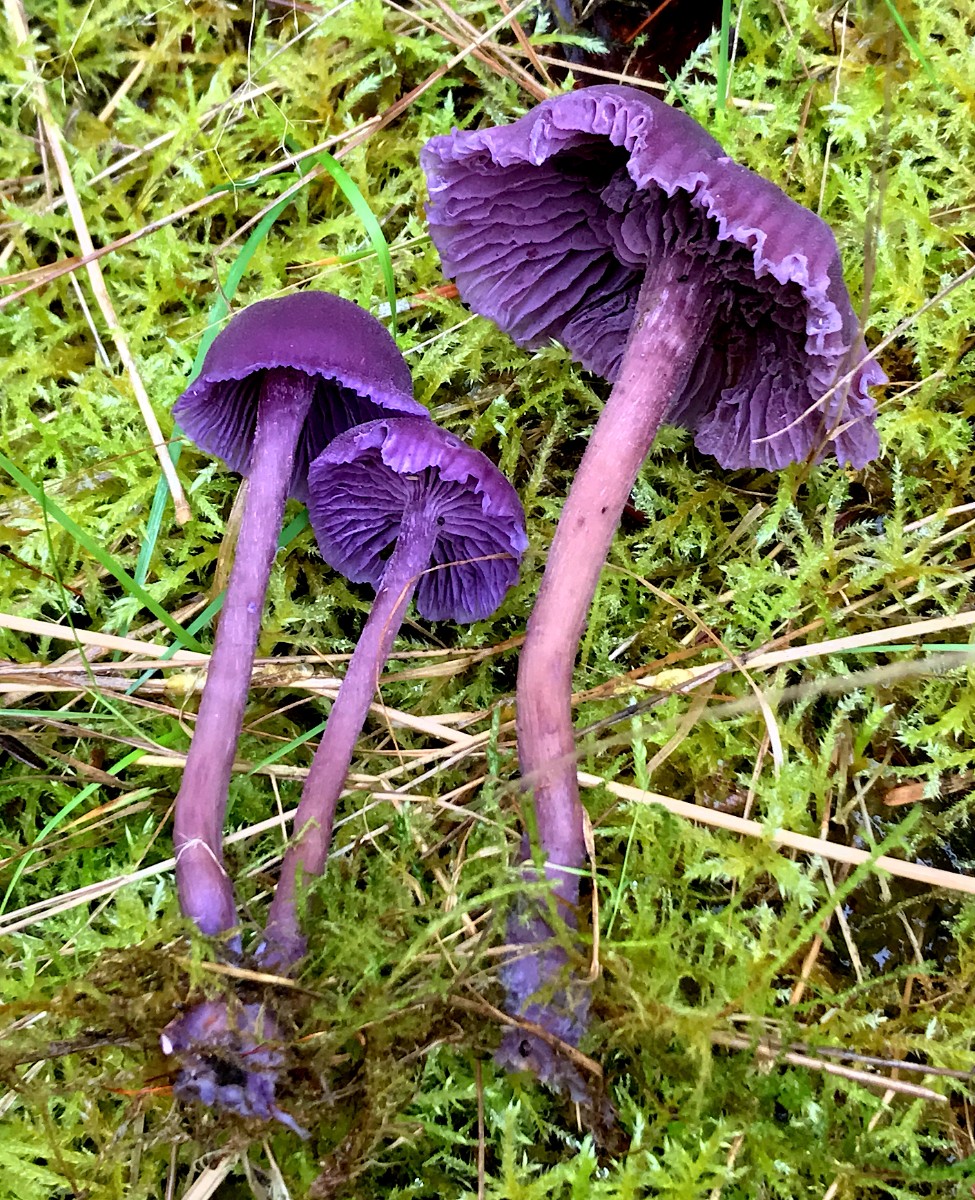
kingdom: Fungi
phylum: Basidiomycota
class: Agaricomycetes
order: Agaricales
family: Hydnangiaceae
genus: Laccaria
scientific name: Laccaria amethystina
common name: violet ametysthat
